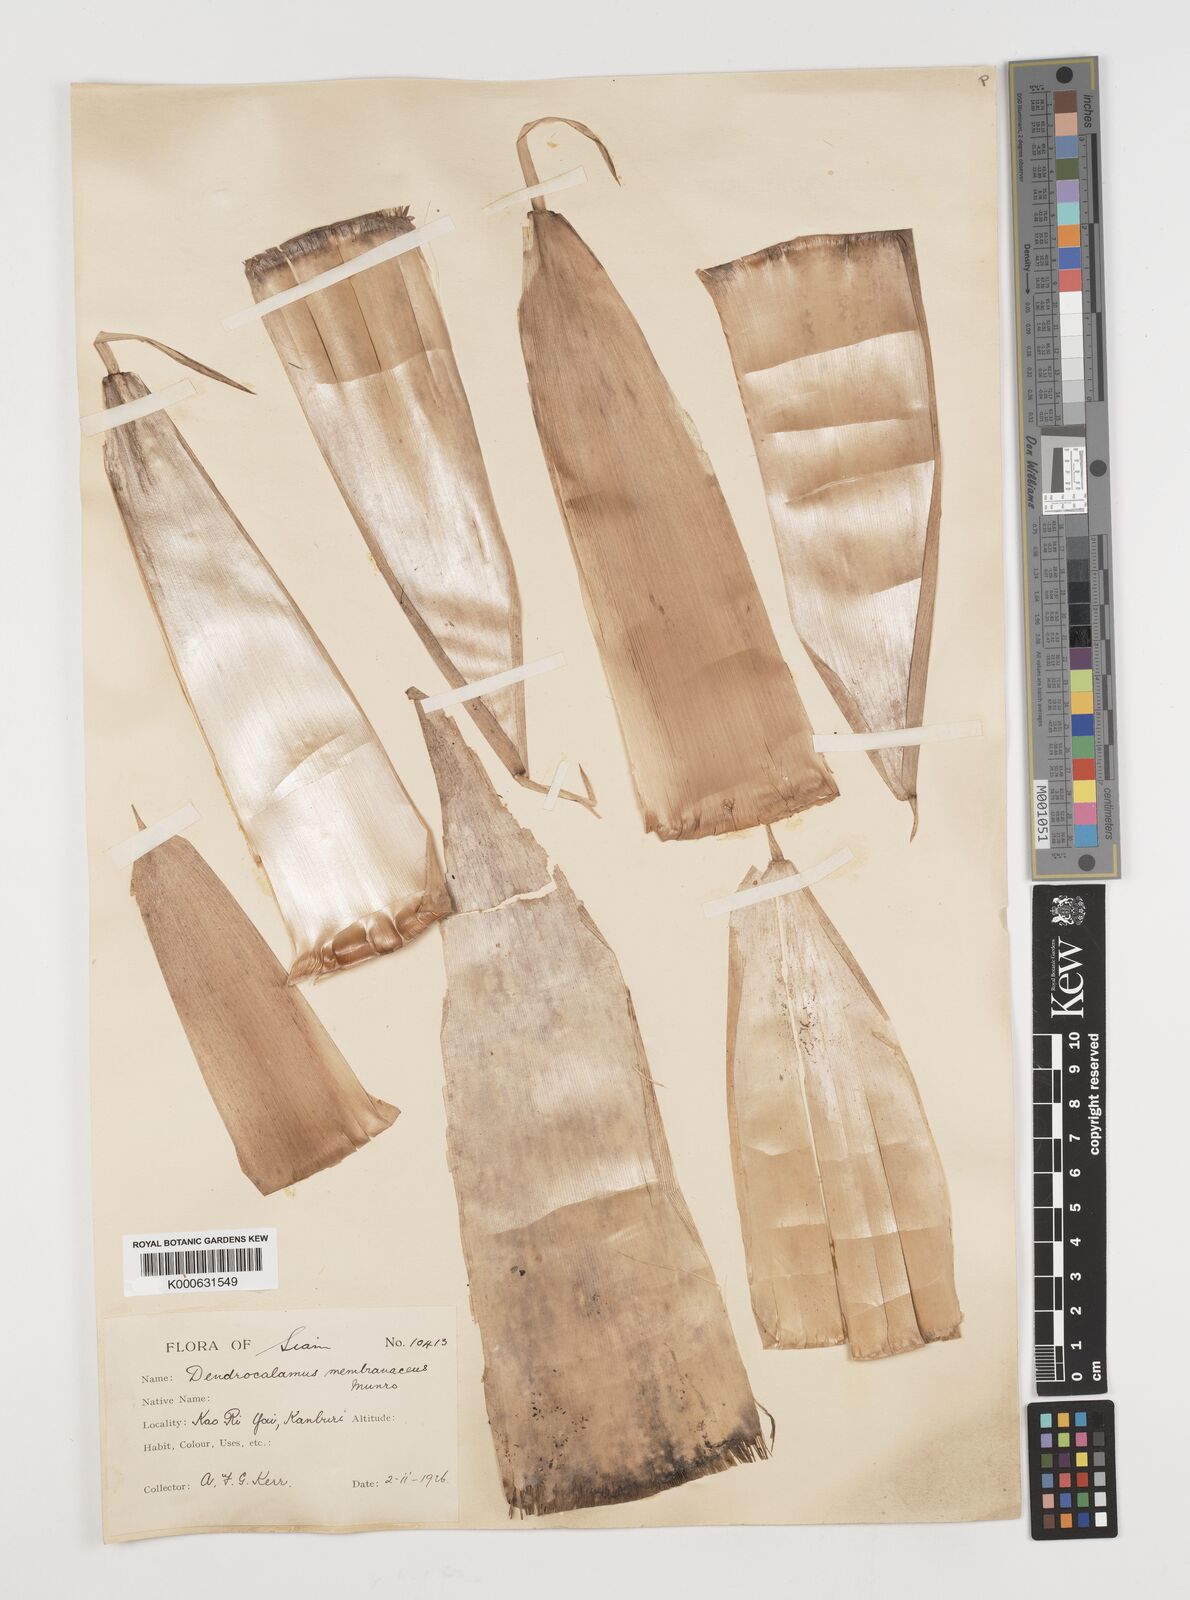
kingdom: Plantae
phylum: Tracheophyta
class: Liliopsida
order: Poales
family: Poaceae
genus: Chimonocalamus
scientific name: Chimonocalamus
